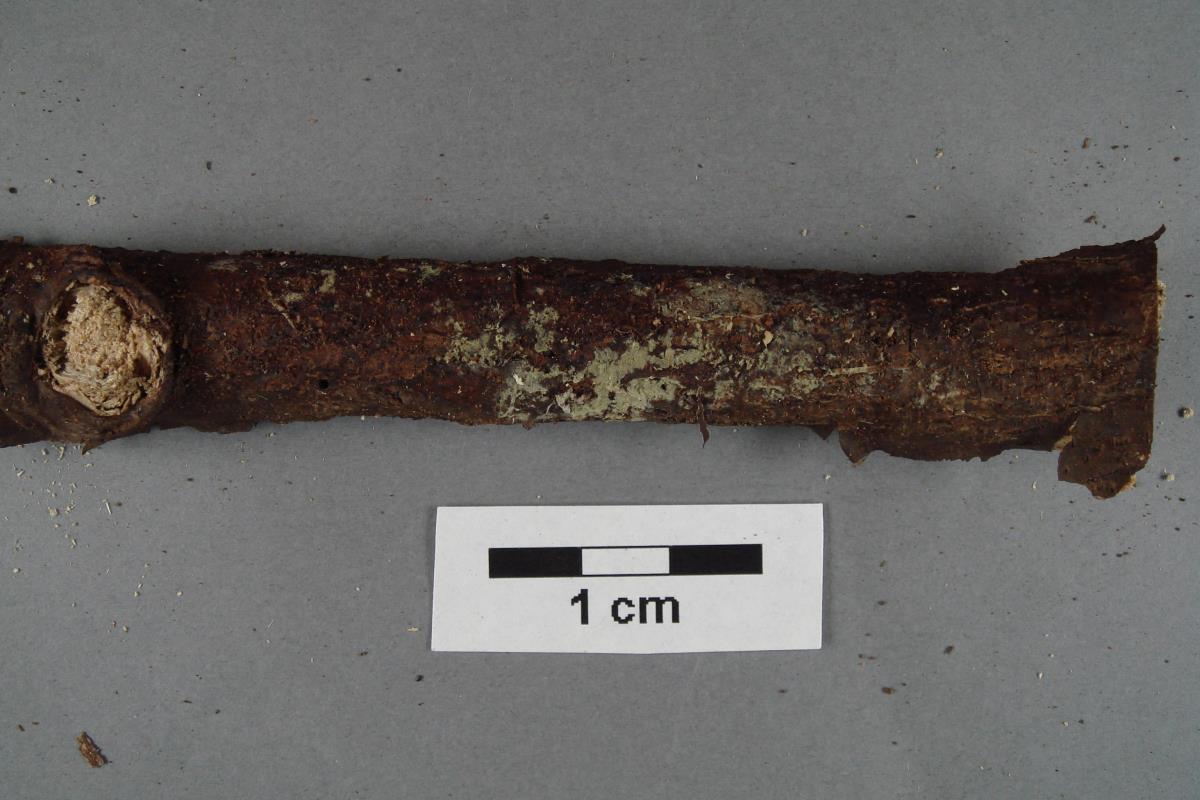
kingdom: Fungi
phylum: Basidiomycota
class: Agaricomycetes
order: Russulales
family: Xenasmataceae
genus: Phlebiella
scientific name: Phlebiella sulphurea
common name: Yellow cobweb
